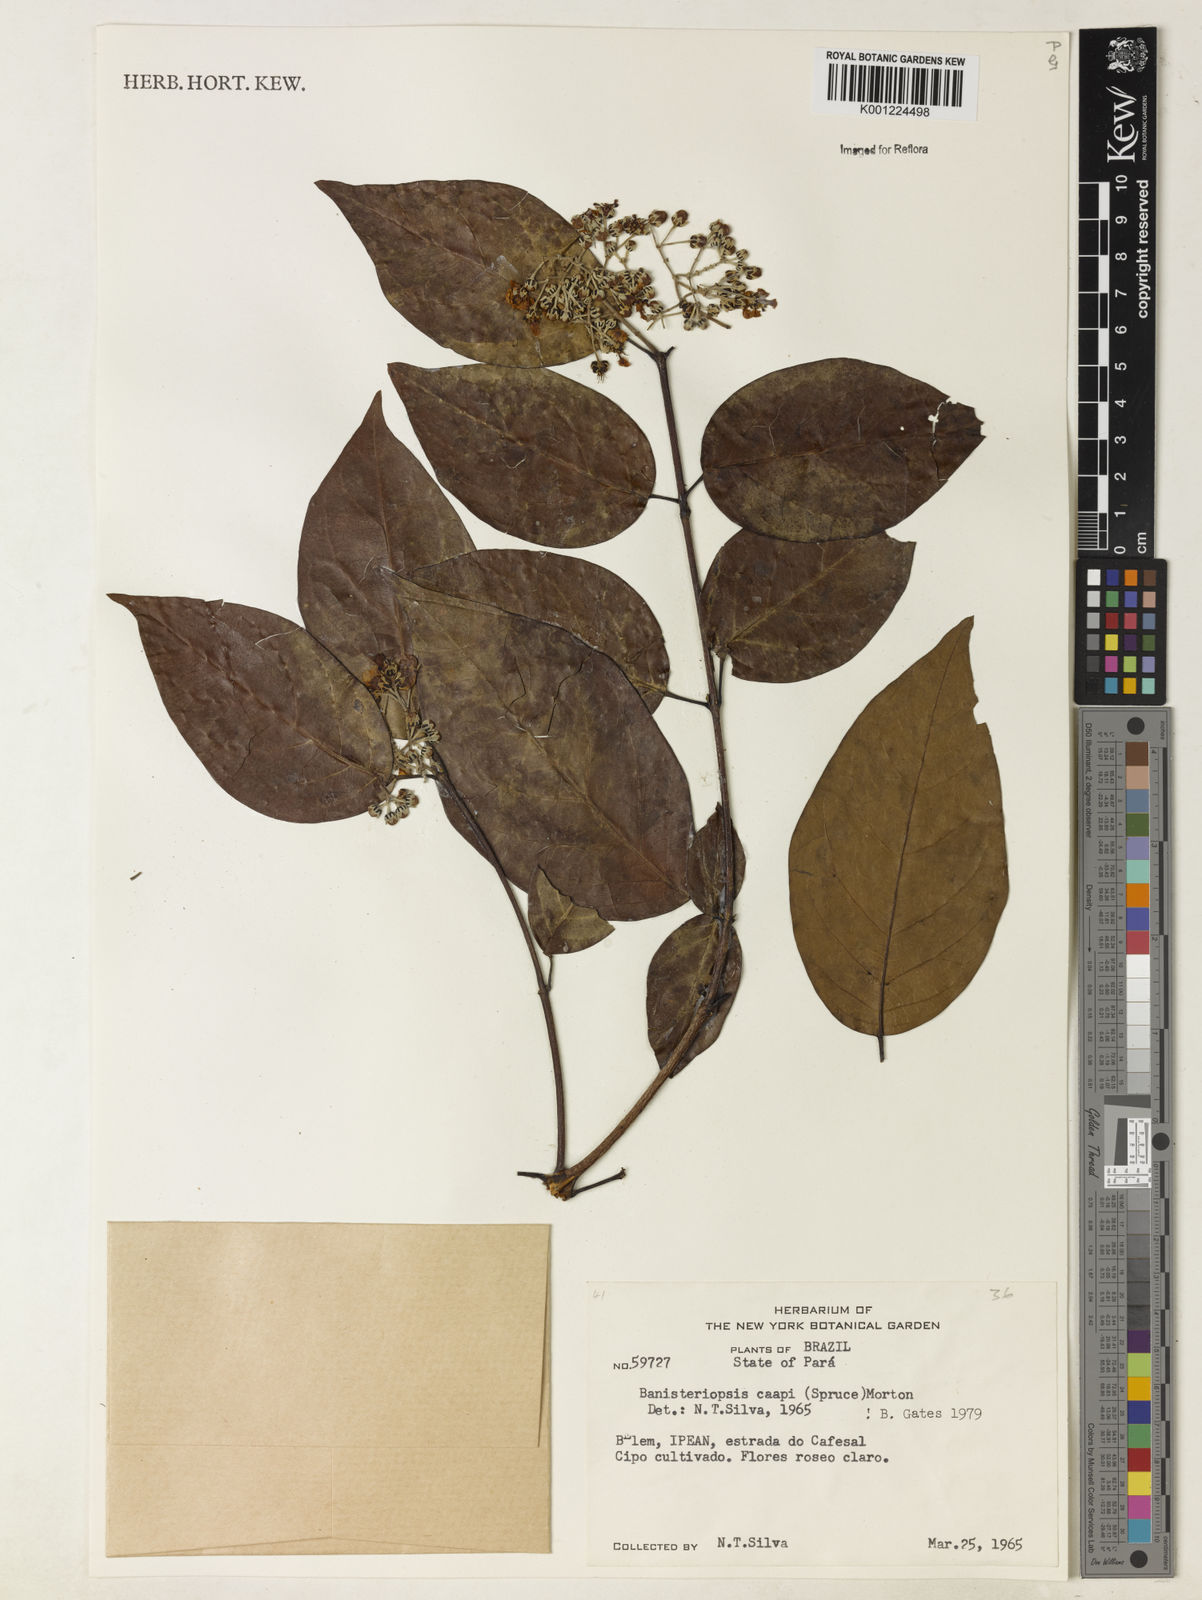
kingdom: Plantae
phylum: Tracheophyta
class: Magnoliopsida
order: Malpighiales
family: Malpighiaceae
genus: Banisteriopsis
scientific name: Banisteriopsis caapi
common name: Soulvine
